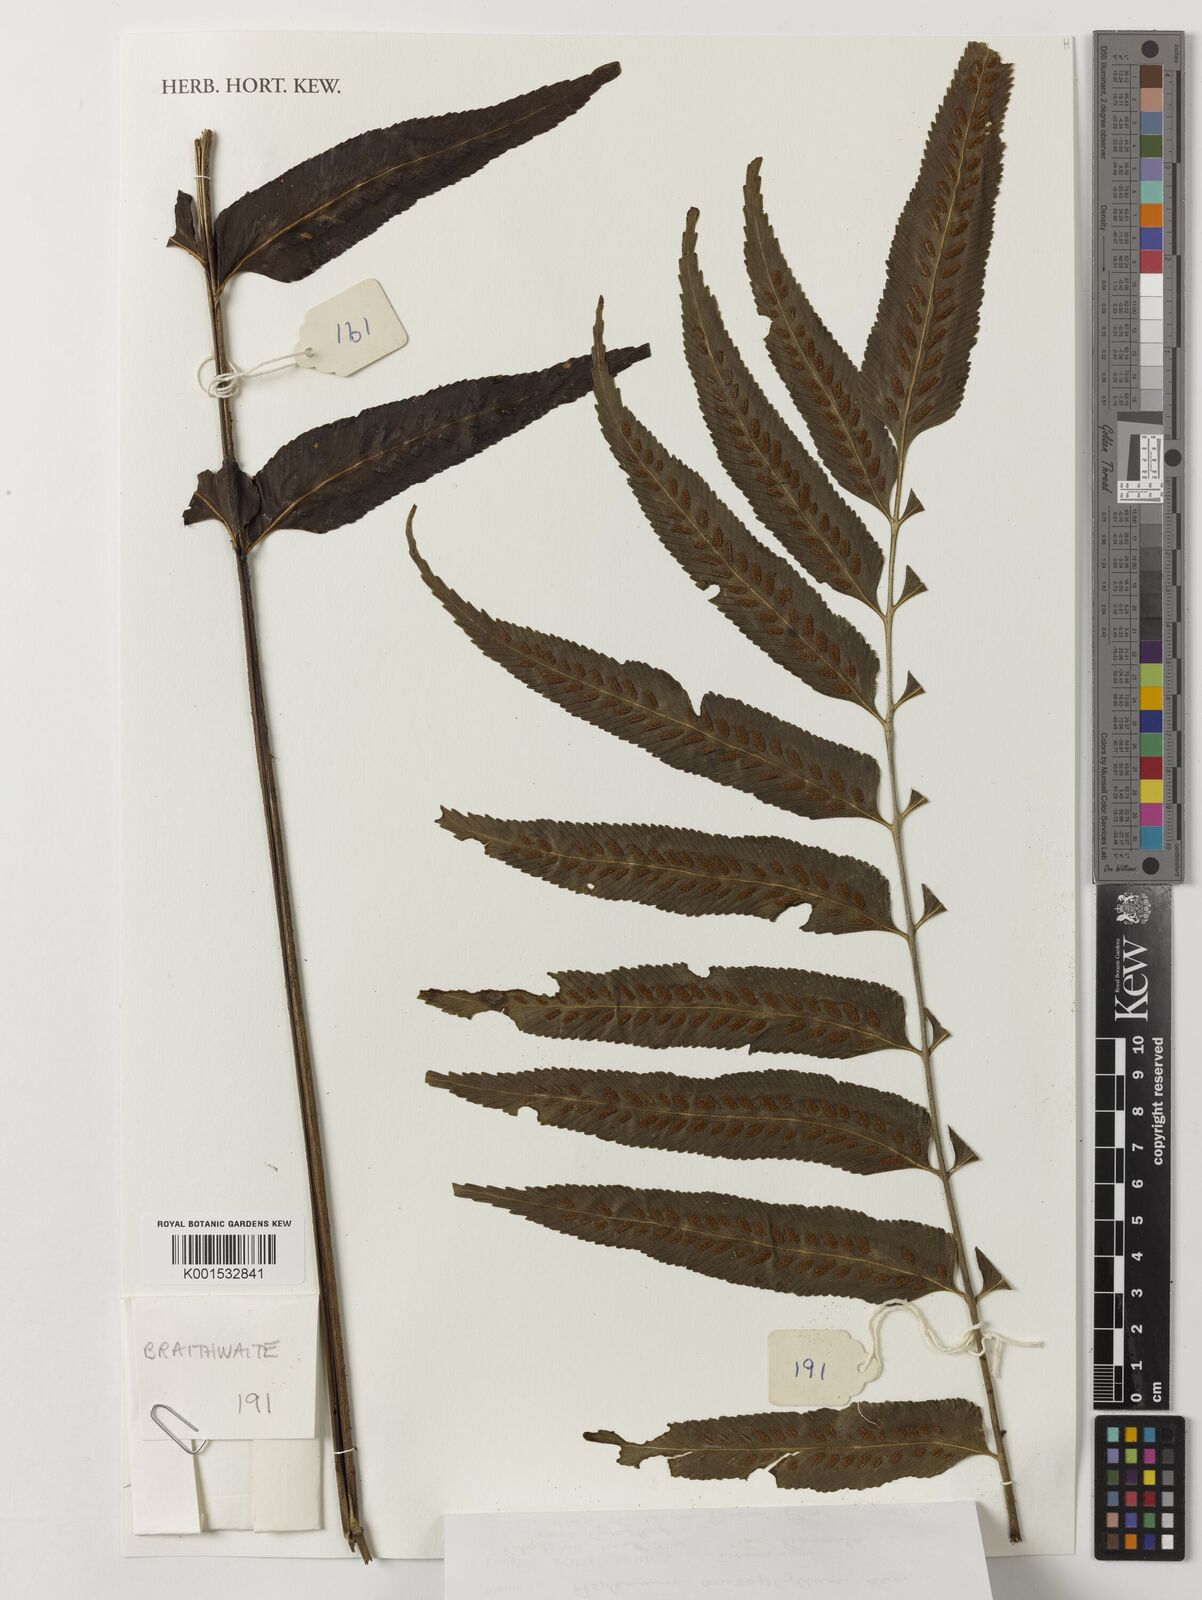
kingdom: Plantae
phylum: Tracheophyta
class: Polypodiopsida
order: Polypodiales
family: Aspleniaceae
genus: Asplenium
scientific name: Asplenium anisophyllum
